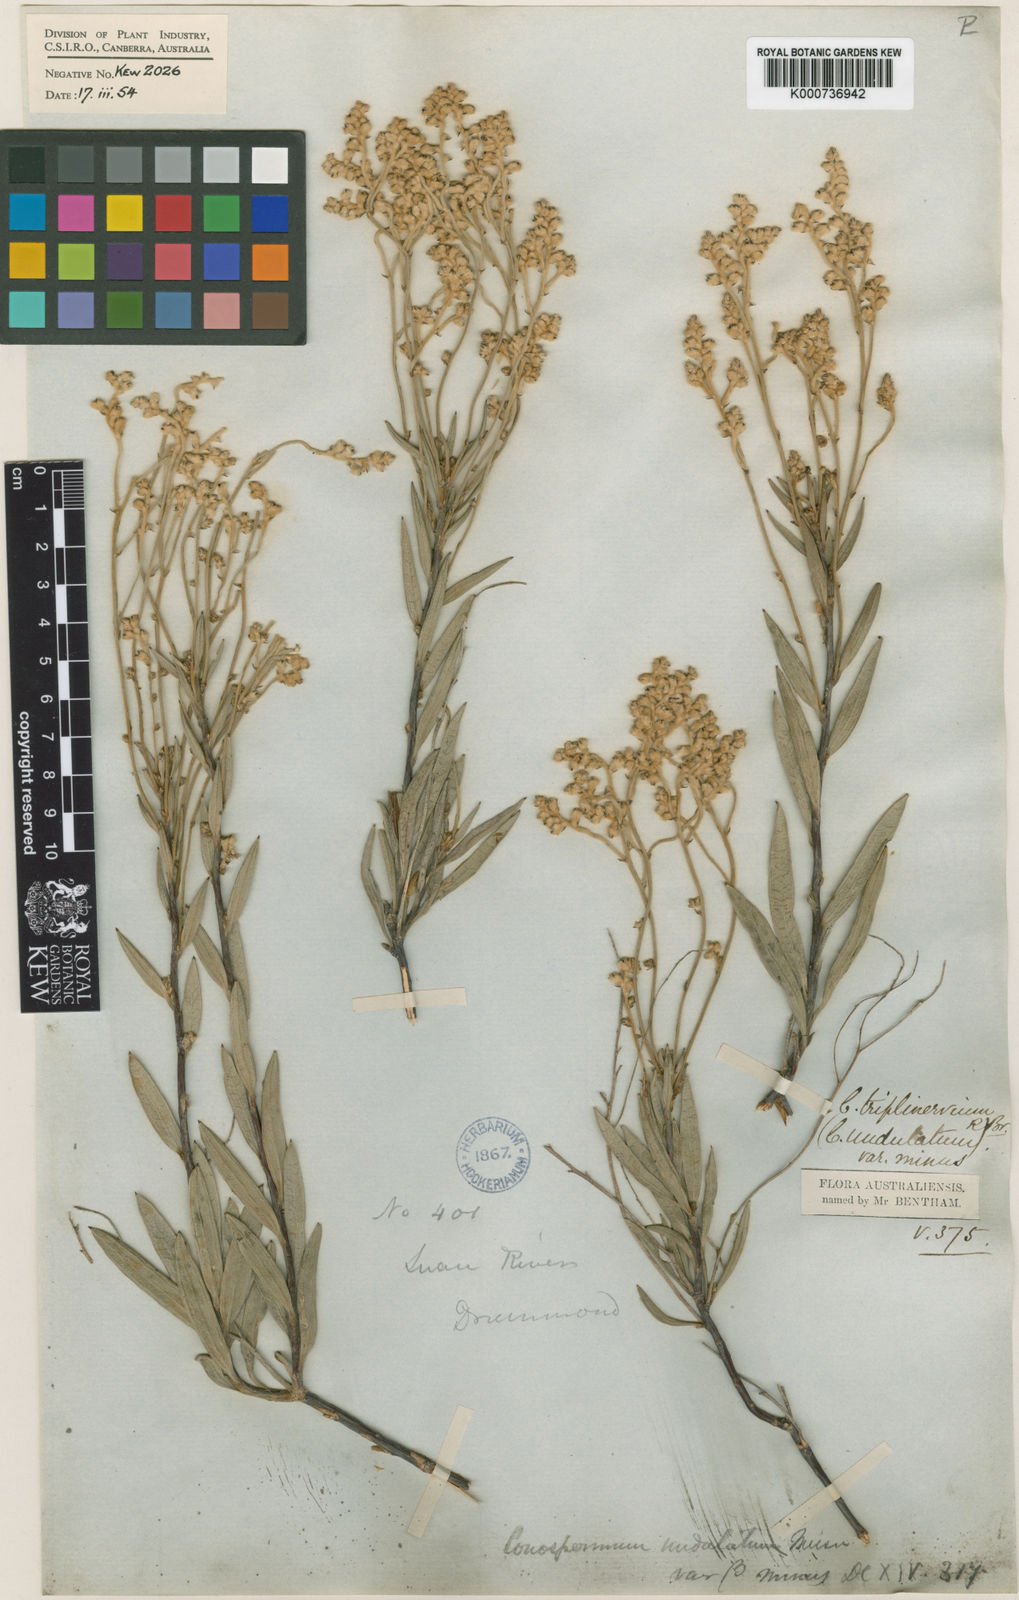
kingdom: Plantae
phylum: Tracheophyta
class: Magnoliopsida
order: Proteales
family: Proteaceae
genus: Conospermum
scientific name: Conospermum triplinervium
